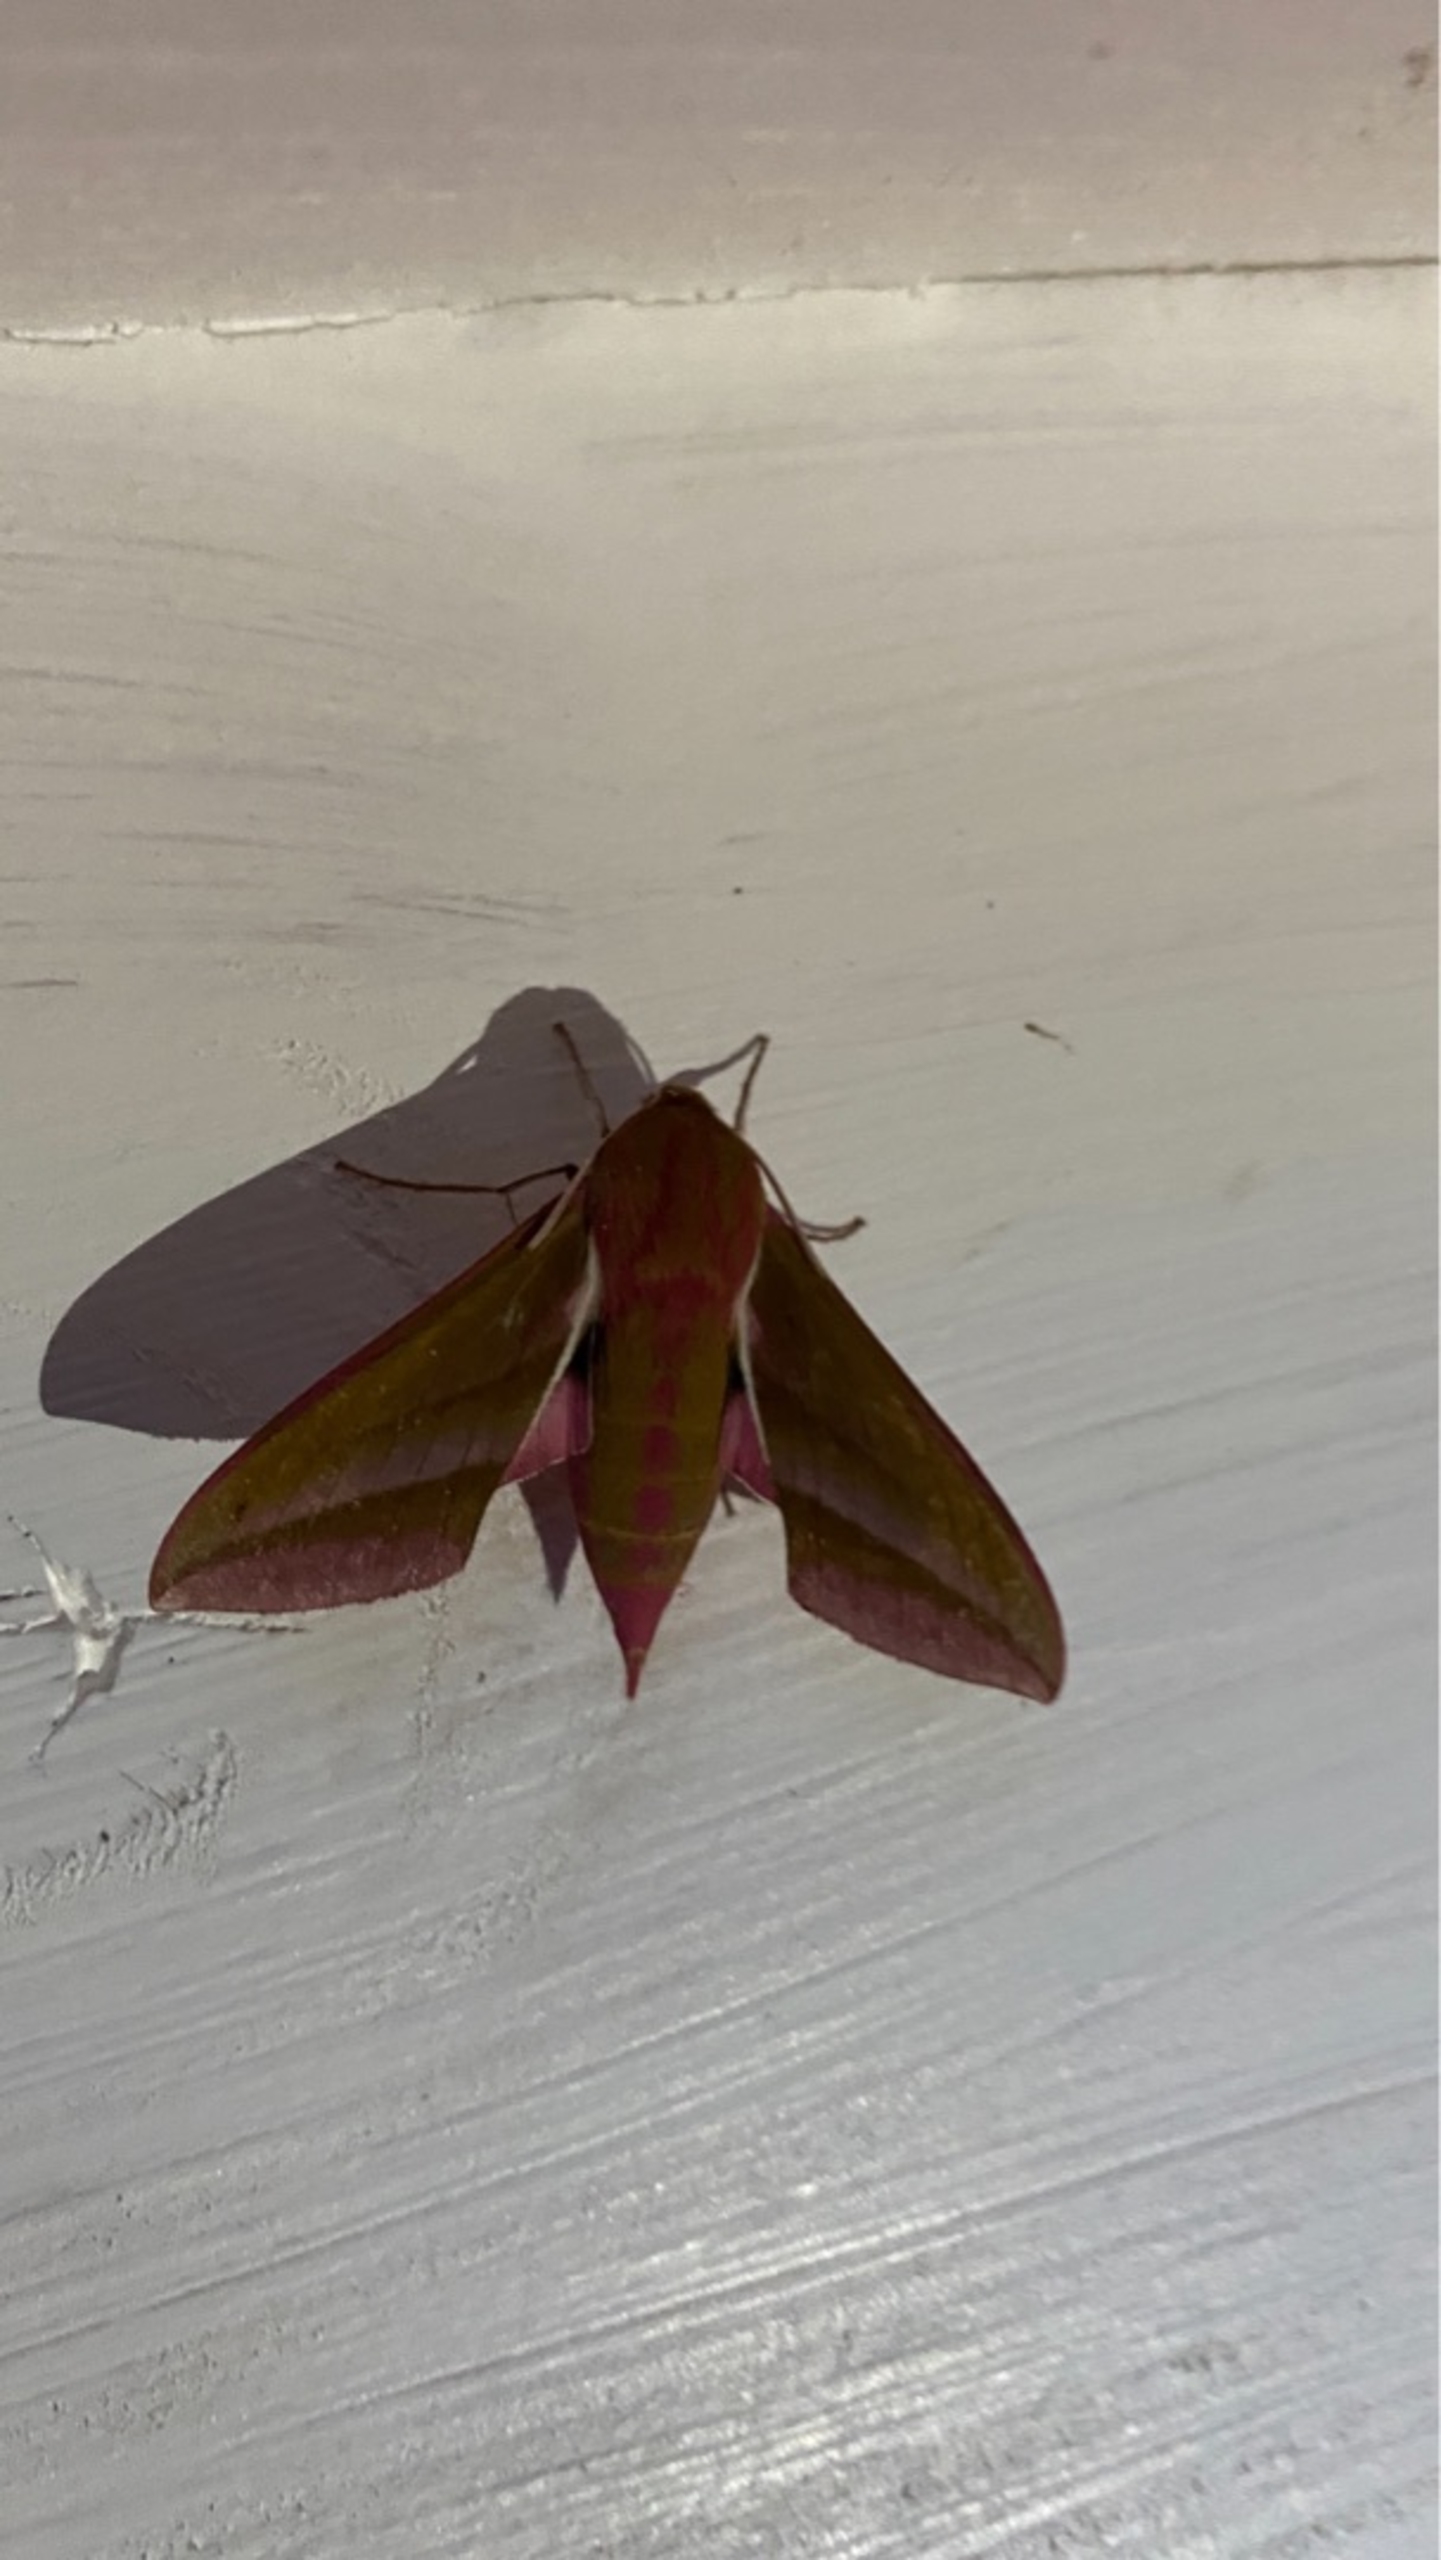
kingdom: Animalia
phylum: Arthropoda
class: Insecta
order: Lepidoptera
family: Sphingidae
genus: Deilephila
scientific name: Deilephila porcellus
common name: Lille vinsværmer
